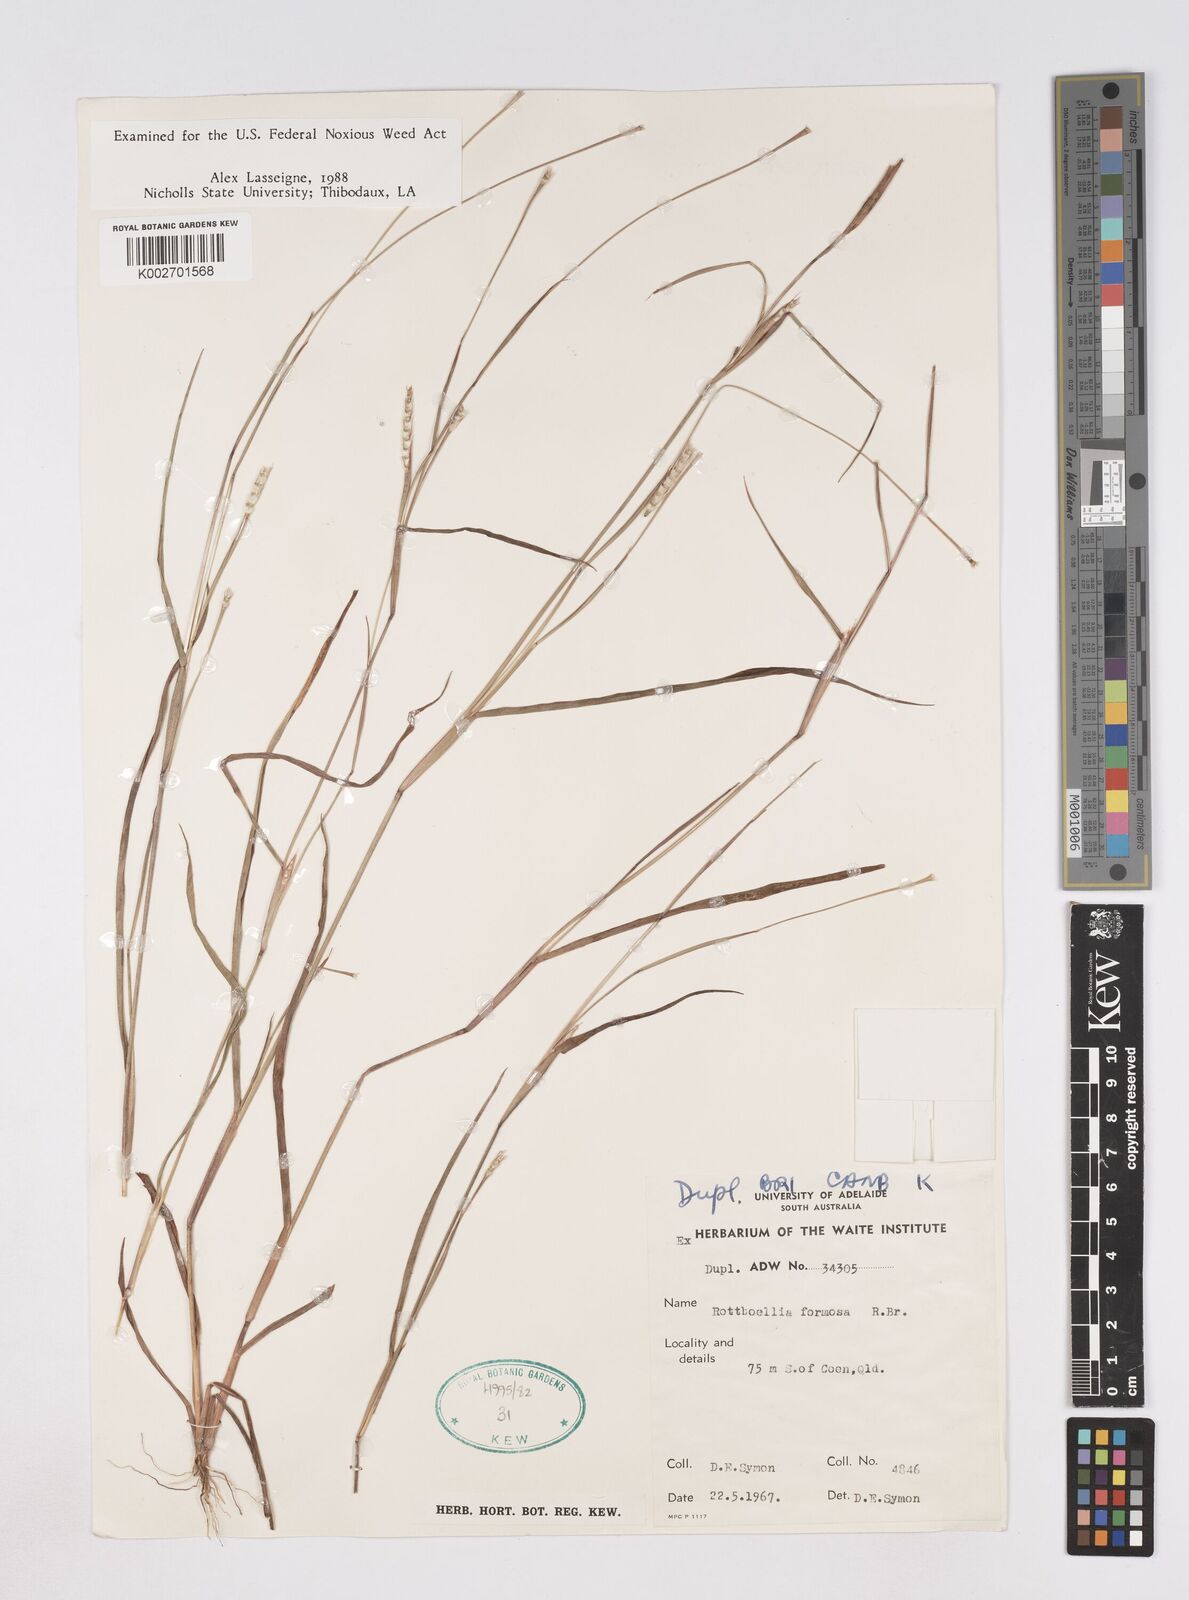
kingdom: Plantae
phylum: Tracheophyta
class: Liliopsida
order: Poales
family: Poaceae
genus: Heteropholis
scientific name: Heteropholis
